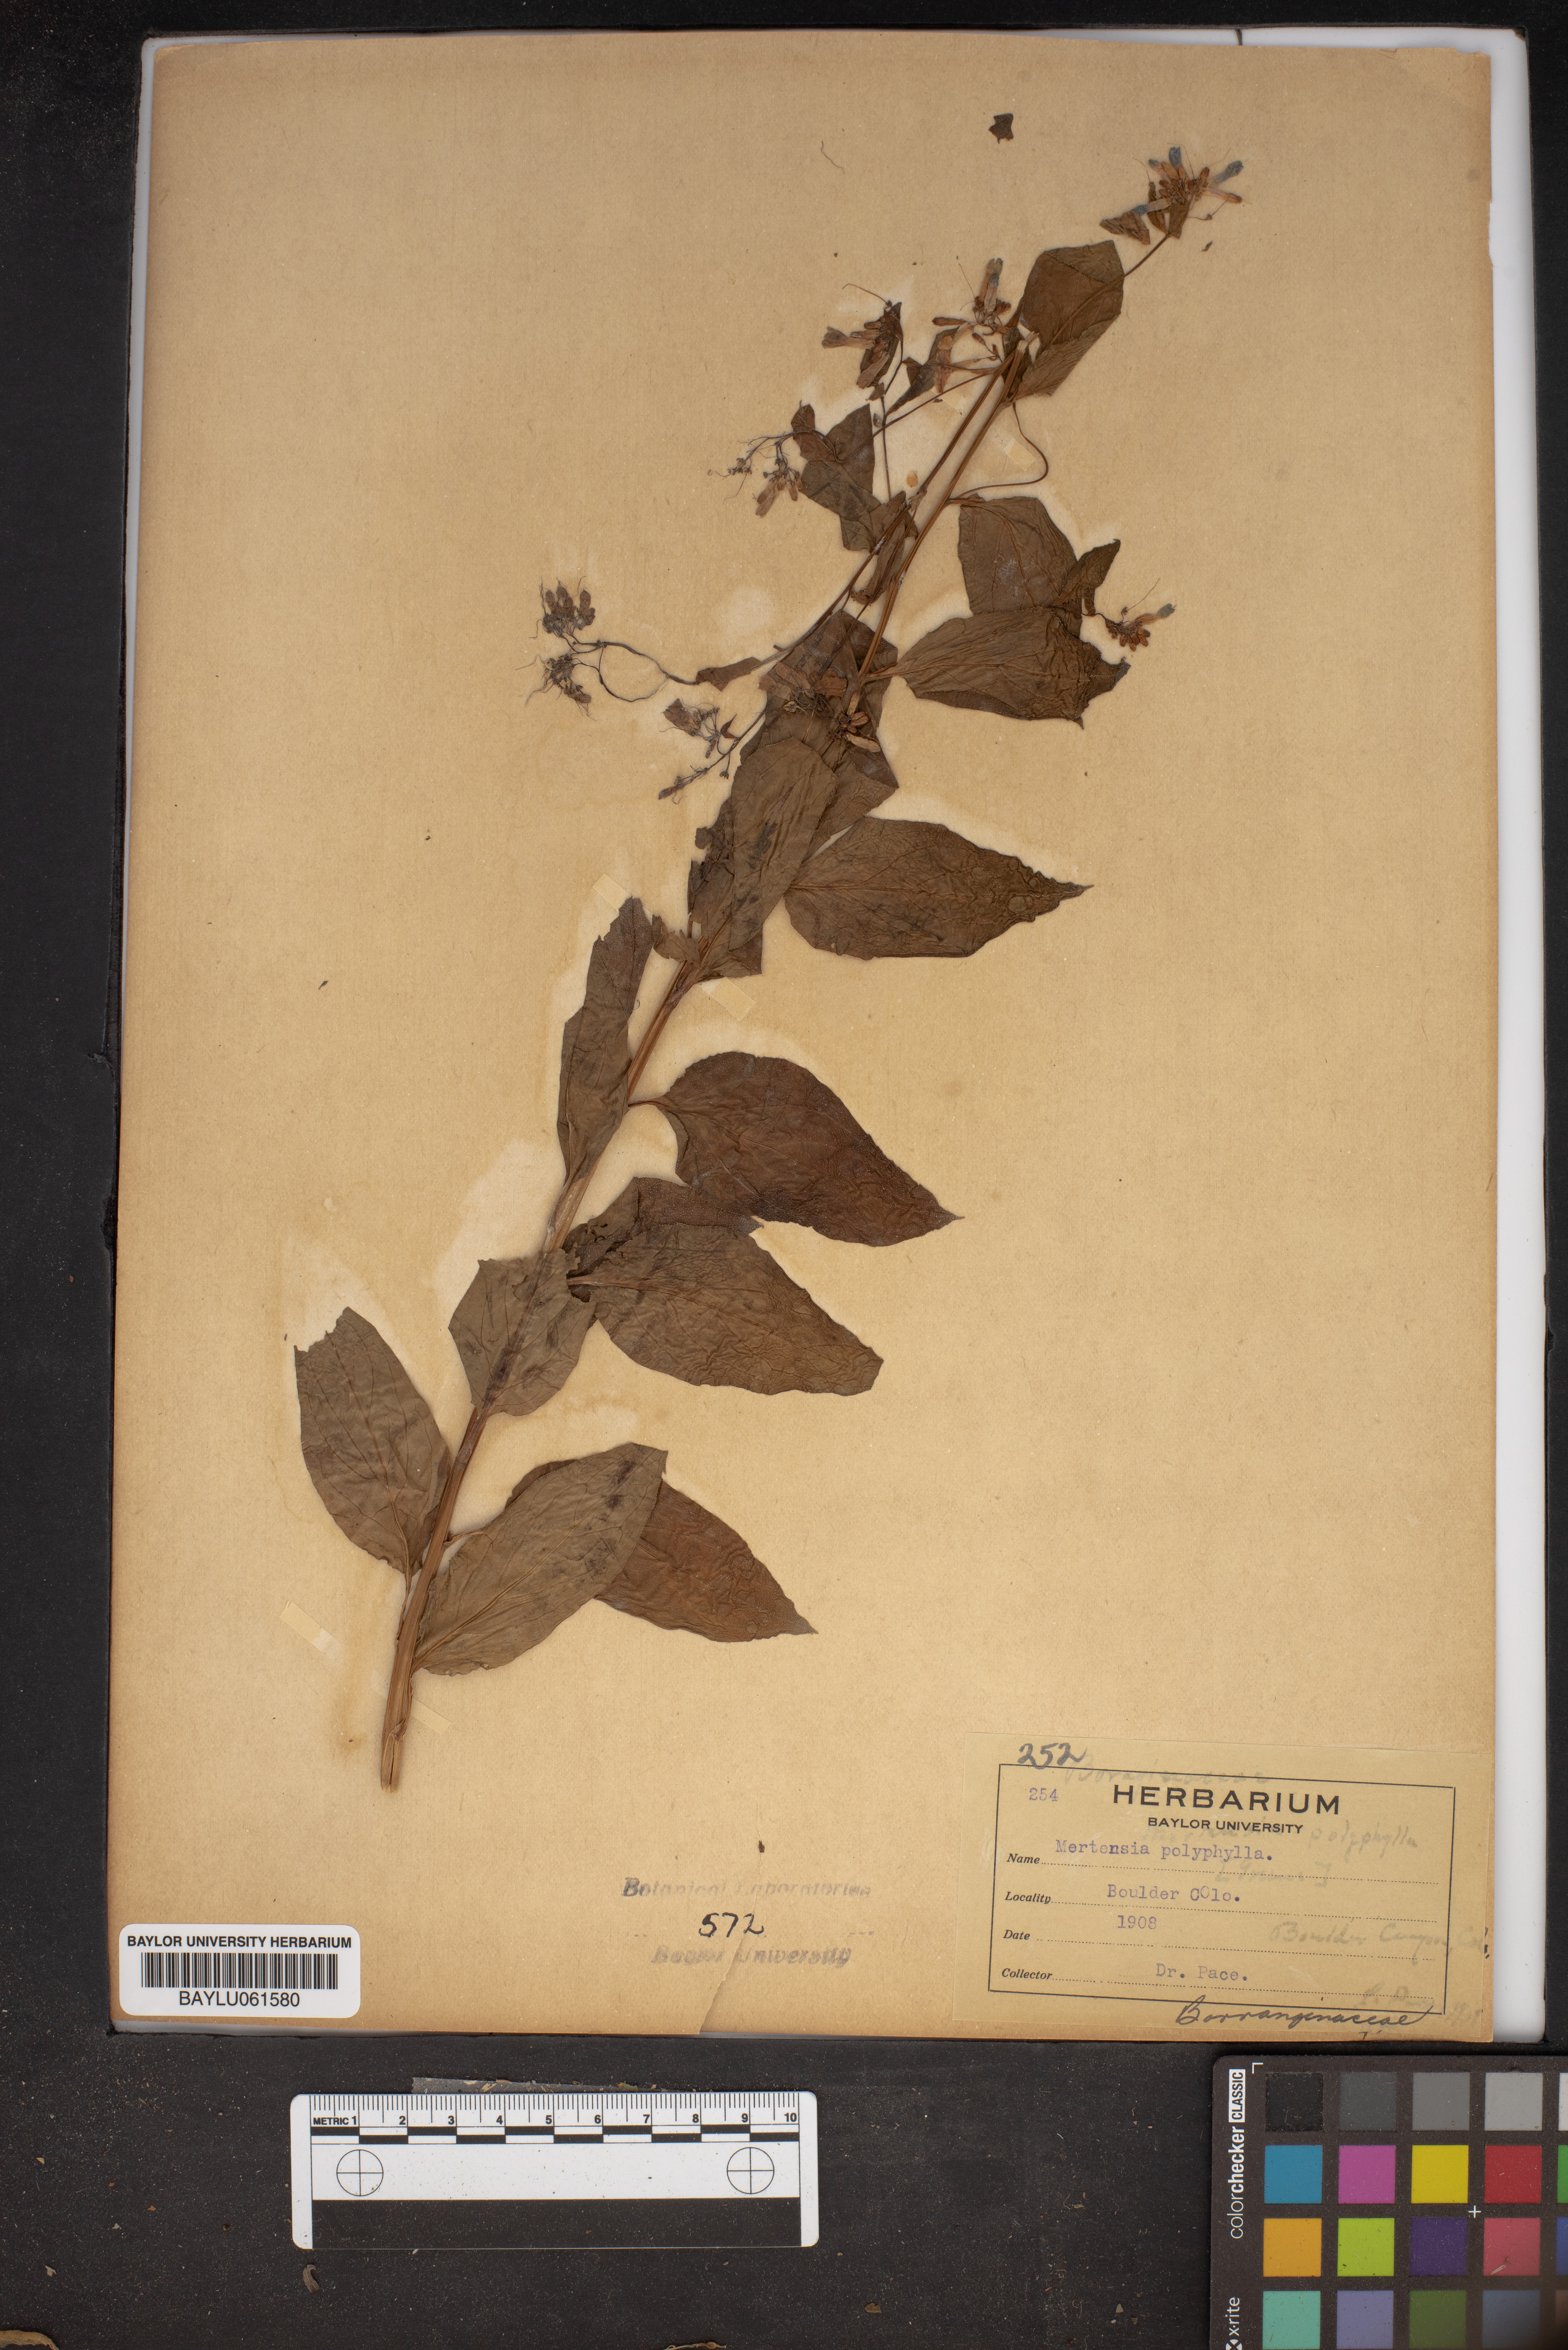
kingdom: Plantae
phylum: Tracheophyta
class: Magnoliopsida
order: Boraginales
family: Boraginaceae
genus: Mertensia
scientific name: Mertensia ciliata
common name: Tall chiming-bells
